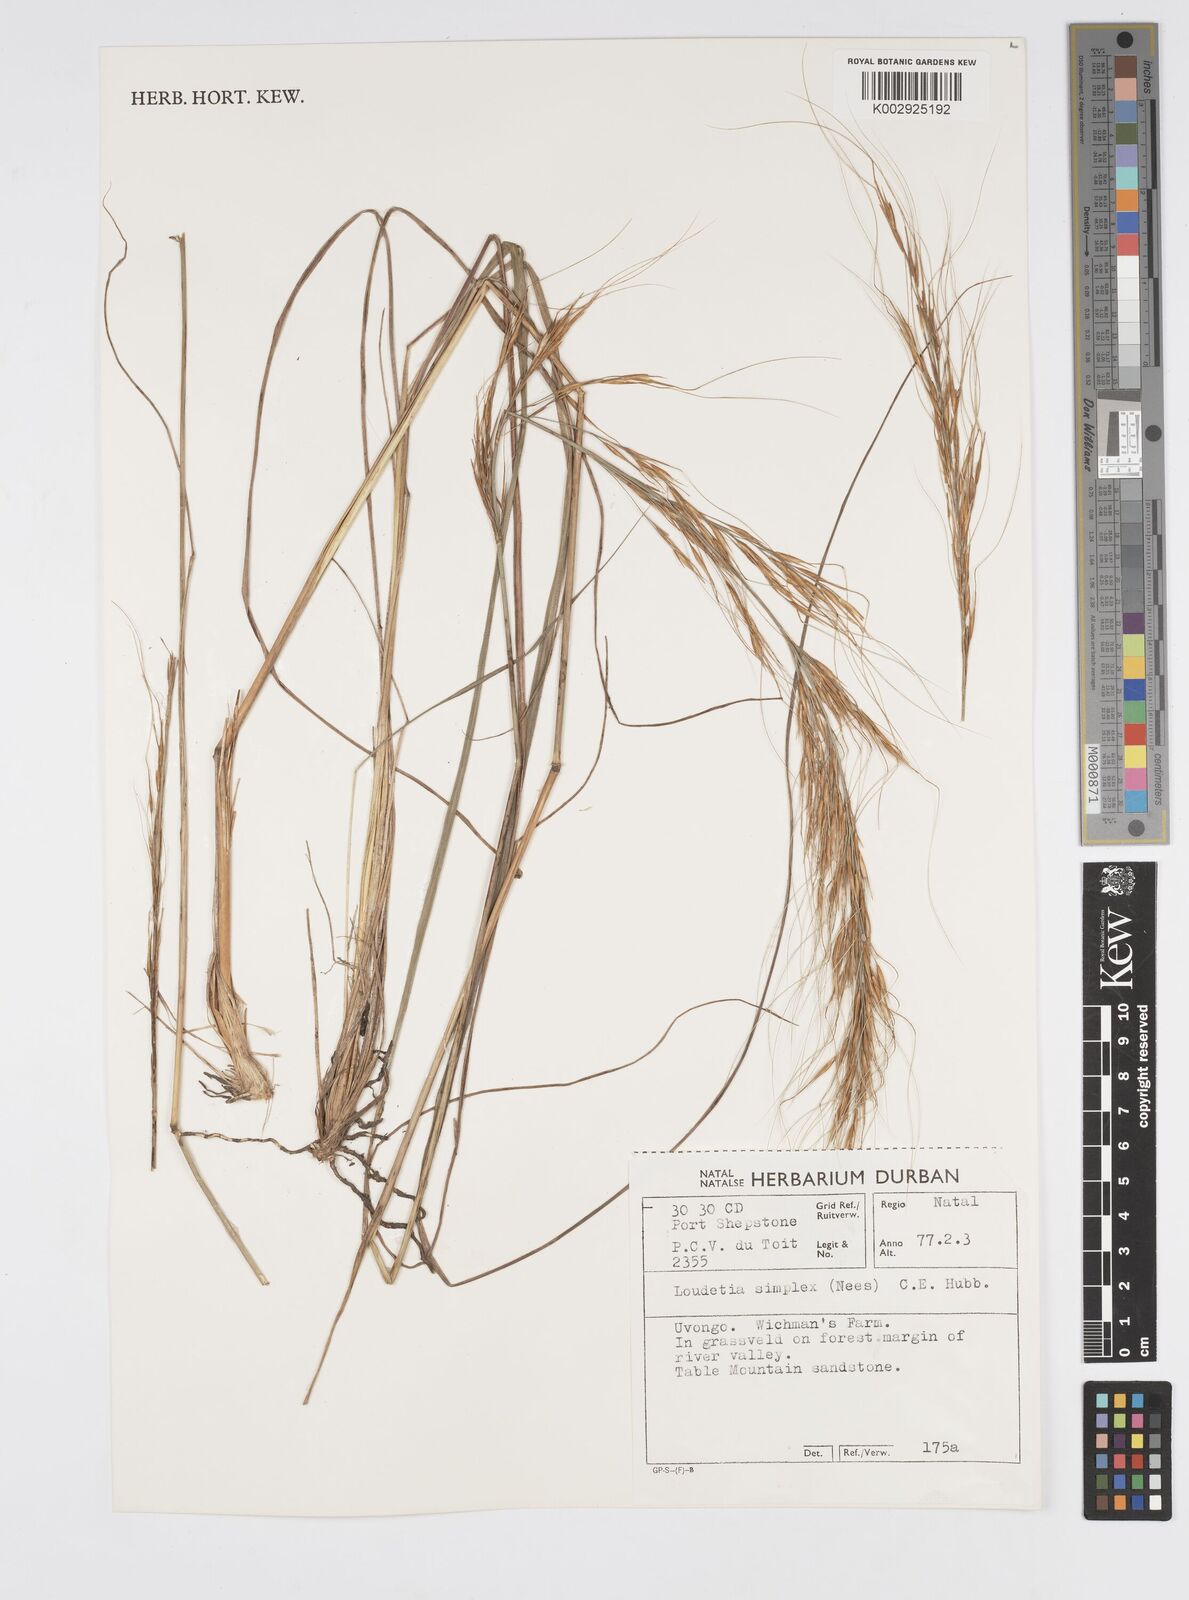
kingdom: Plantae
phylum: Tracheophyta
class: Liliopsida
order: Poales
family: Poaceae
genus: Loudetia
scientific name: Loudetia simplex
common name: Common russet grass
